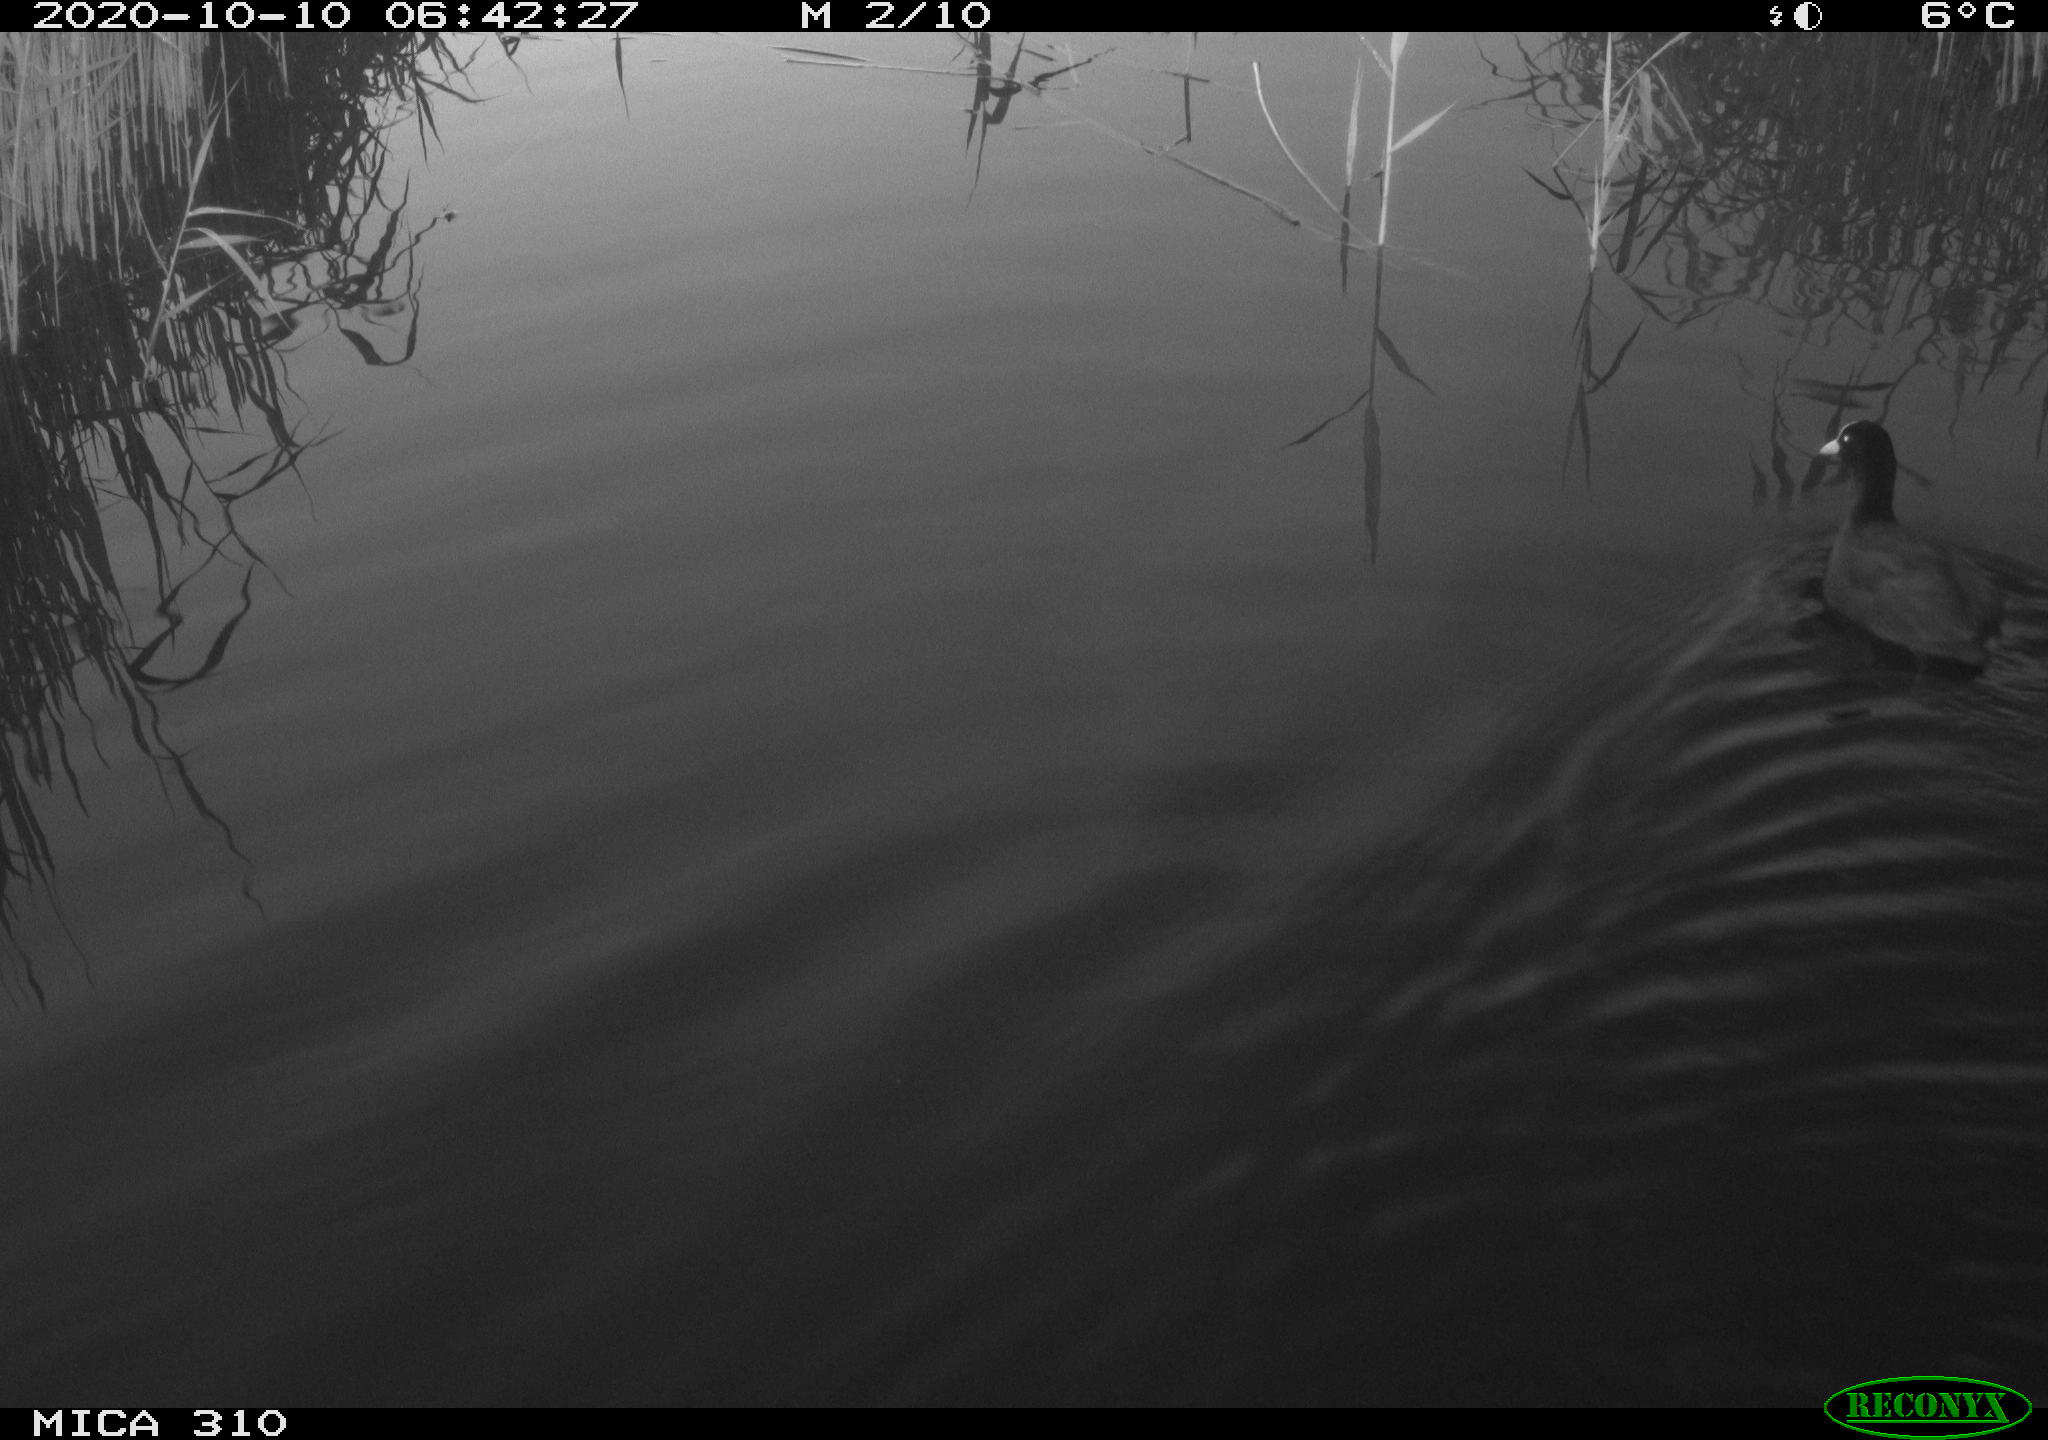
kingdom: Animalia
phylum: Chordata
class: Aves
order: Gruiformes
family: Rallidae
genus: Fulica
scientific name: Fulica atra
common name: Eurasian coot
